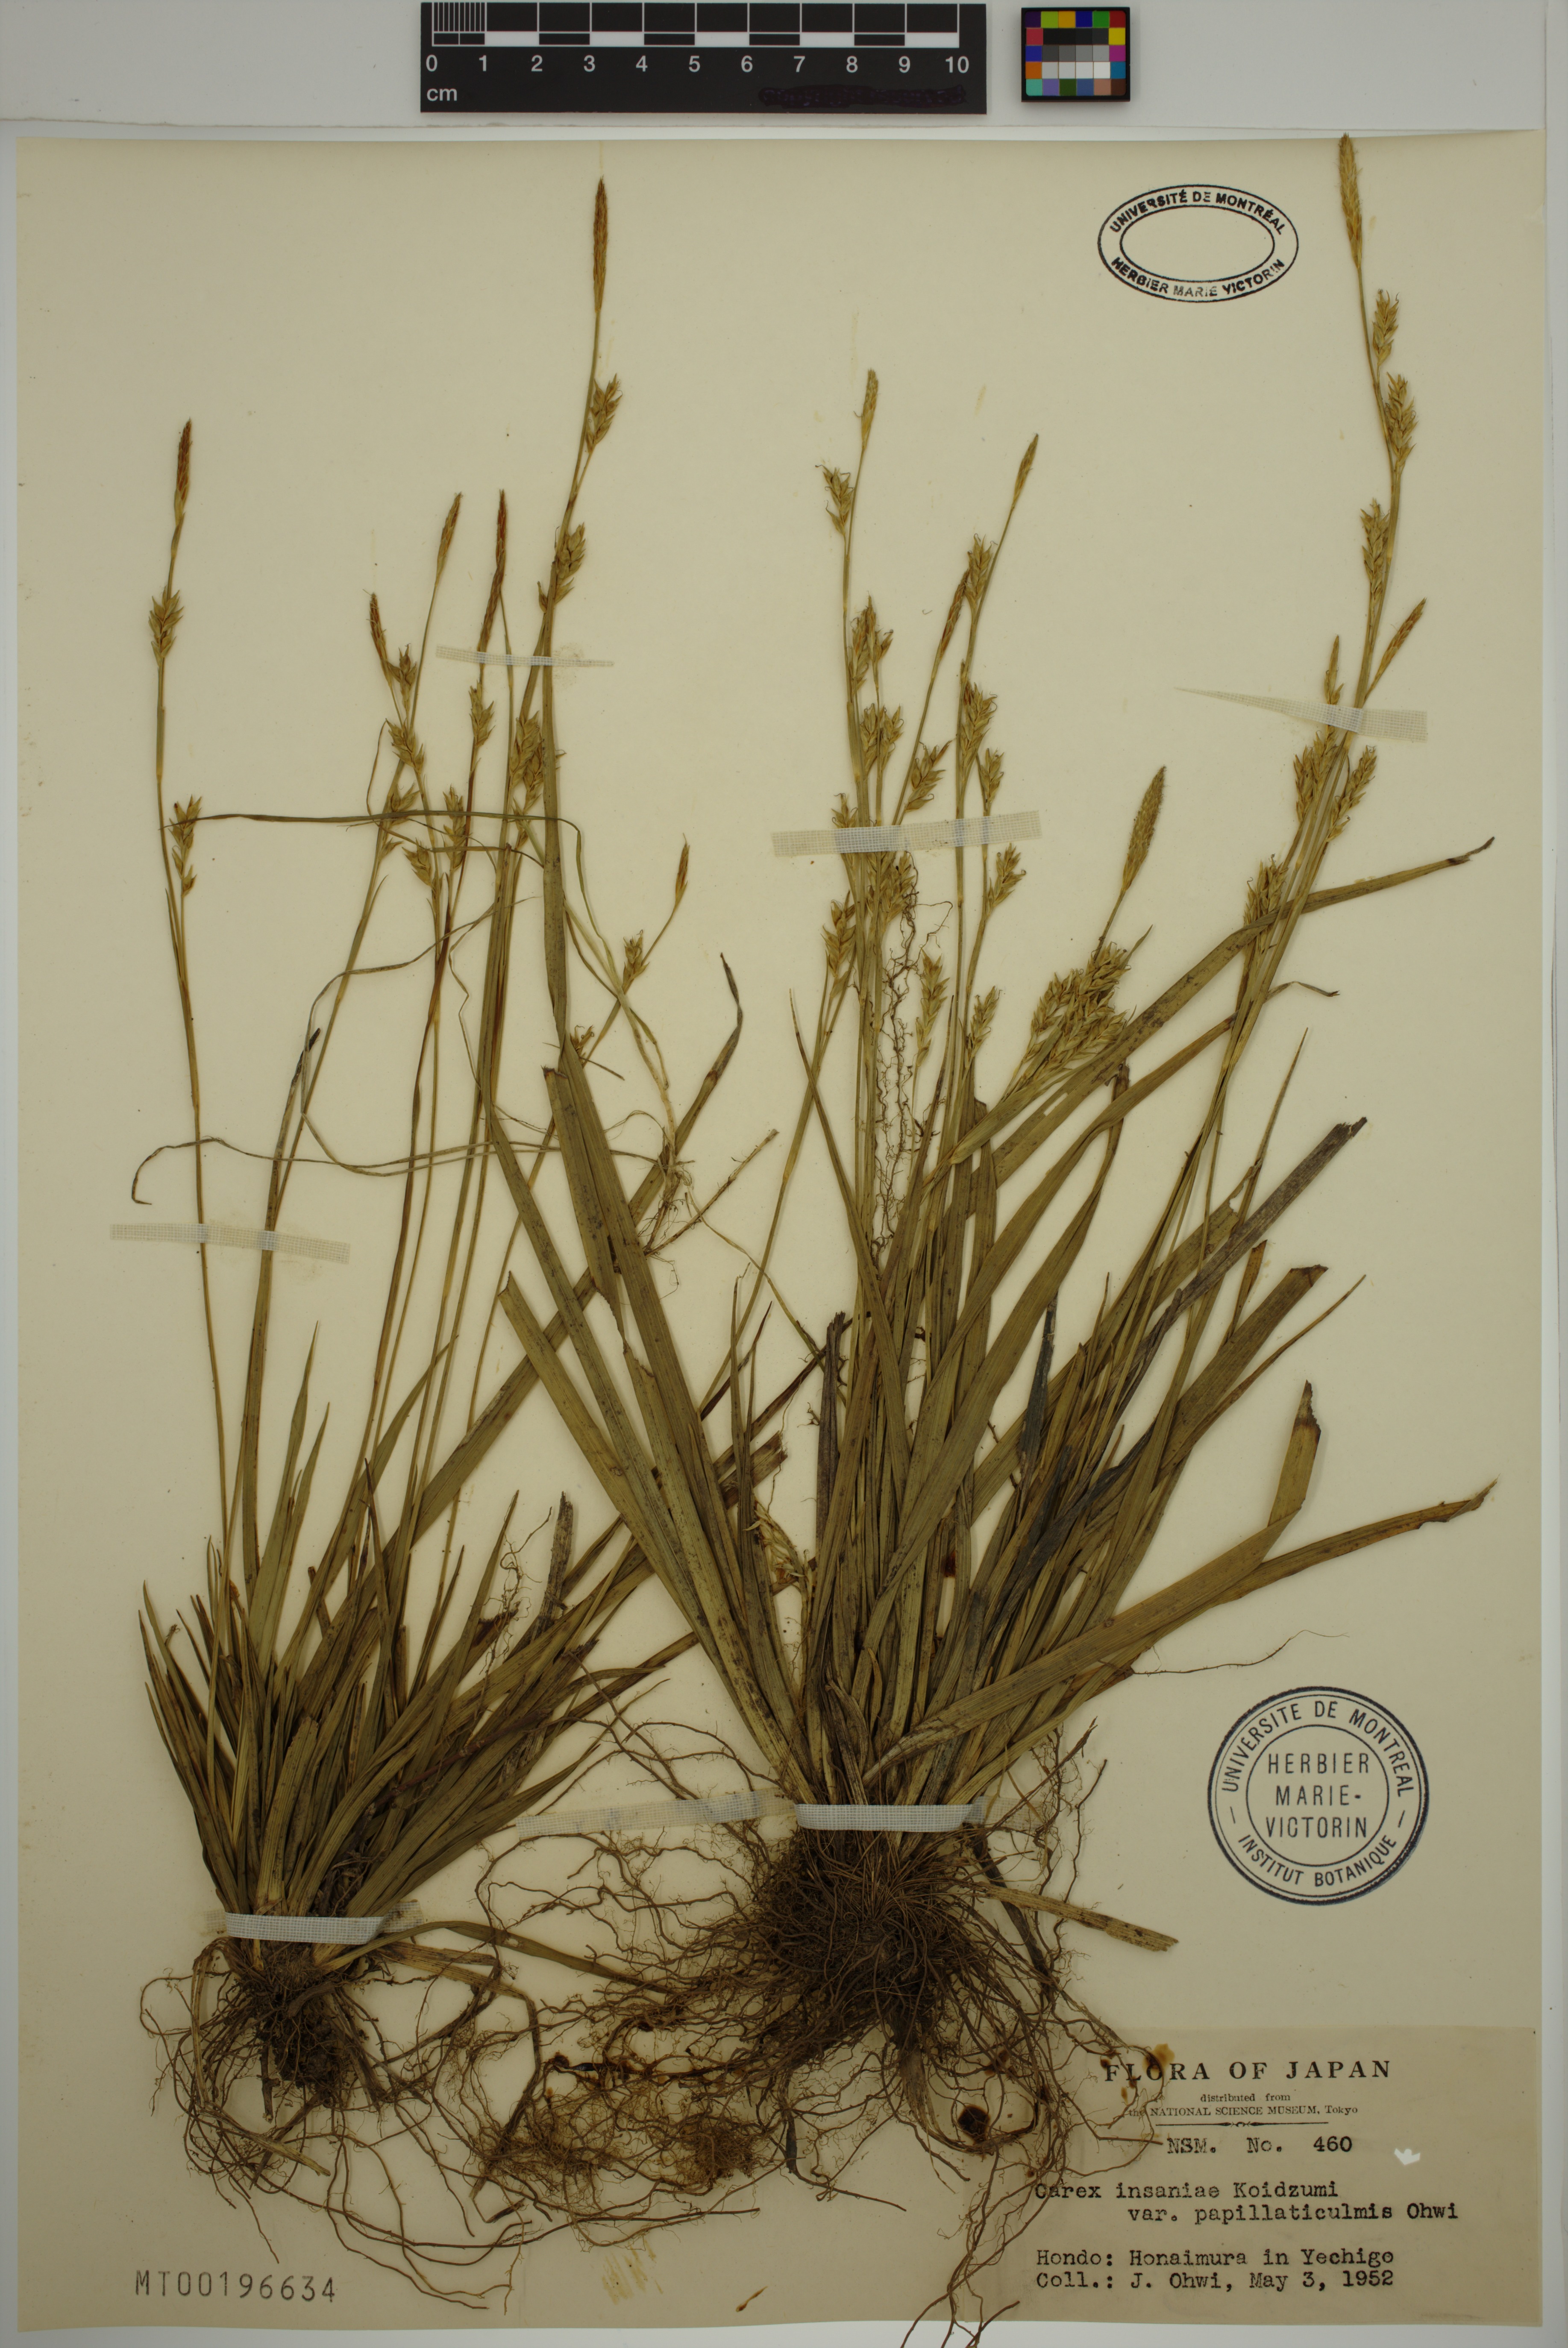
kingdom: Plantae
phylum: Tracheophyta
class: Liliopsida
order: Poales
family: Cyperaceae
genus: Carex
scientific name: Carex insaniae
